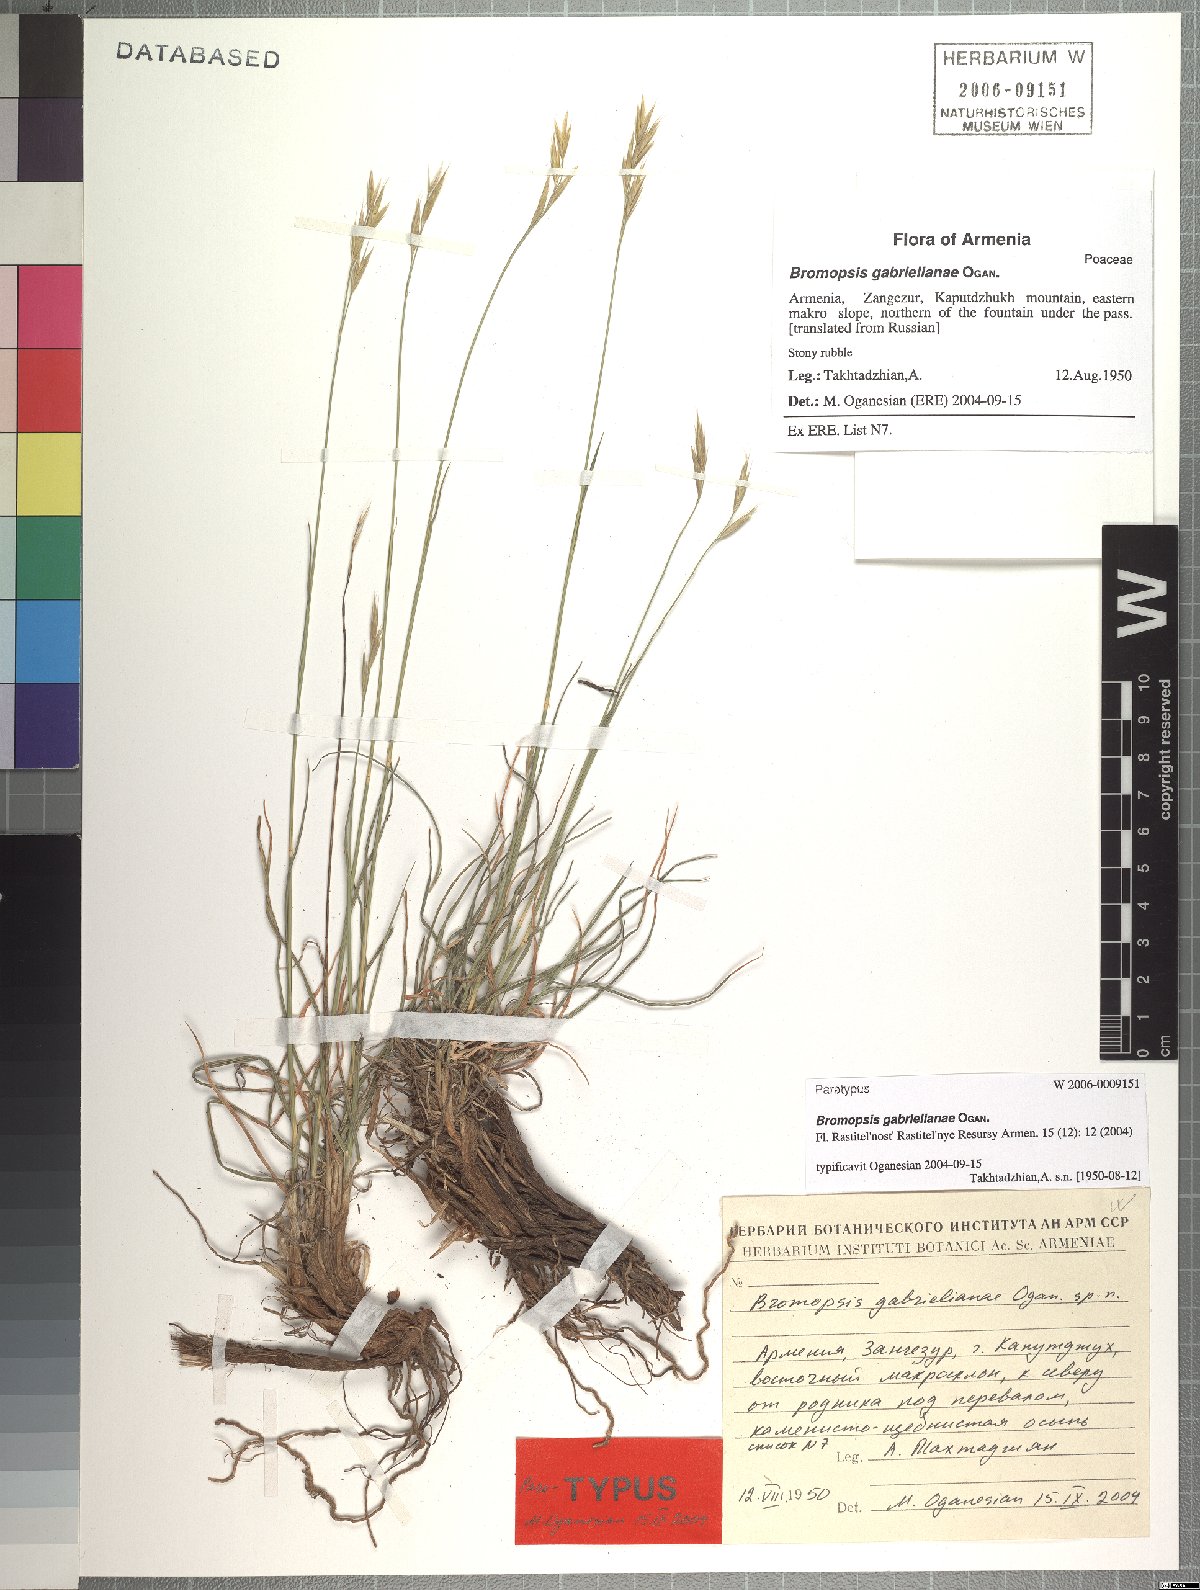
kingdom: Plantae
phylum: Tracheophyta
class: Liliopsida
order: Poales
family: Poaceae
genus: Bromus
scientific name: Bromus tomentosus
